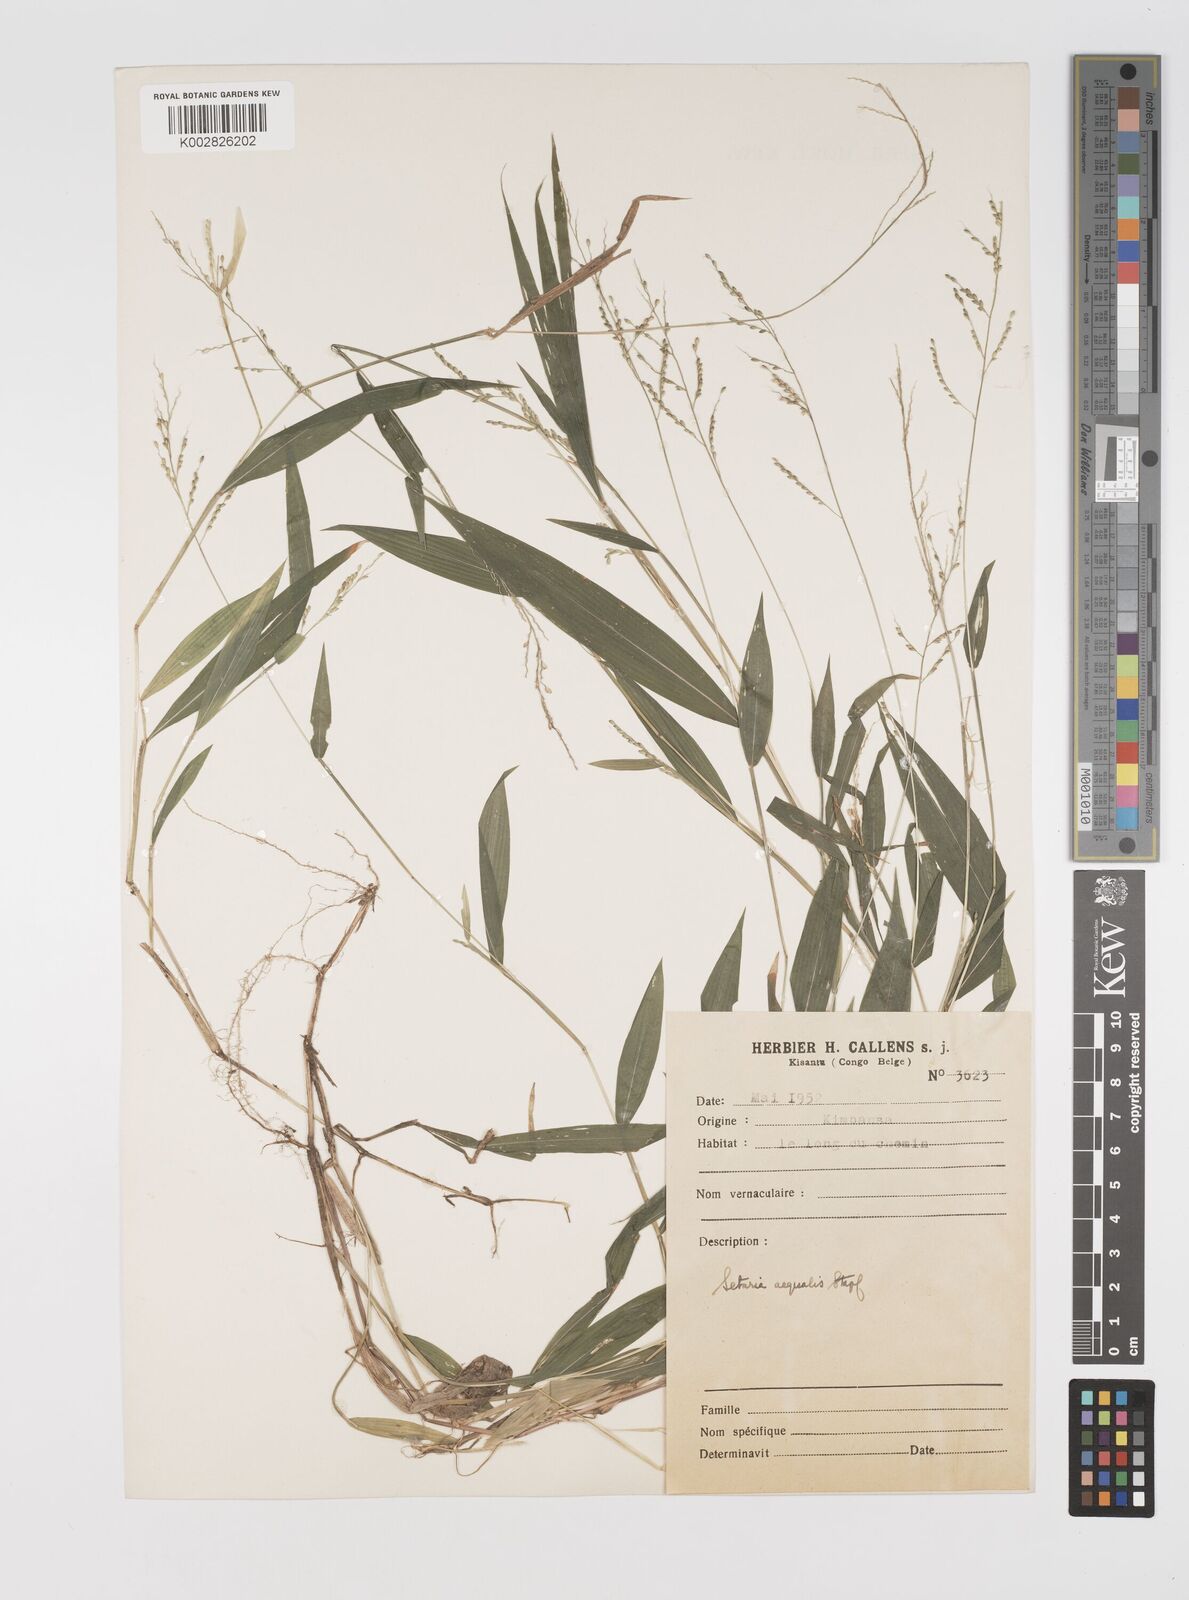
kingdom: Plantae
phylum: Tracheophyta
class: Liliopsida
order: Poales
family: Poaceae
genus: Setaria
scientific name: Setaria homonyma
